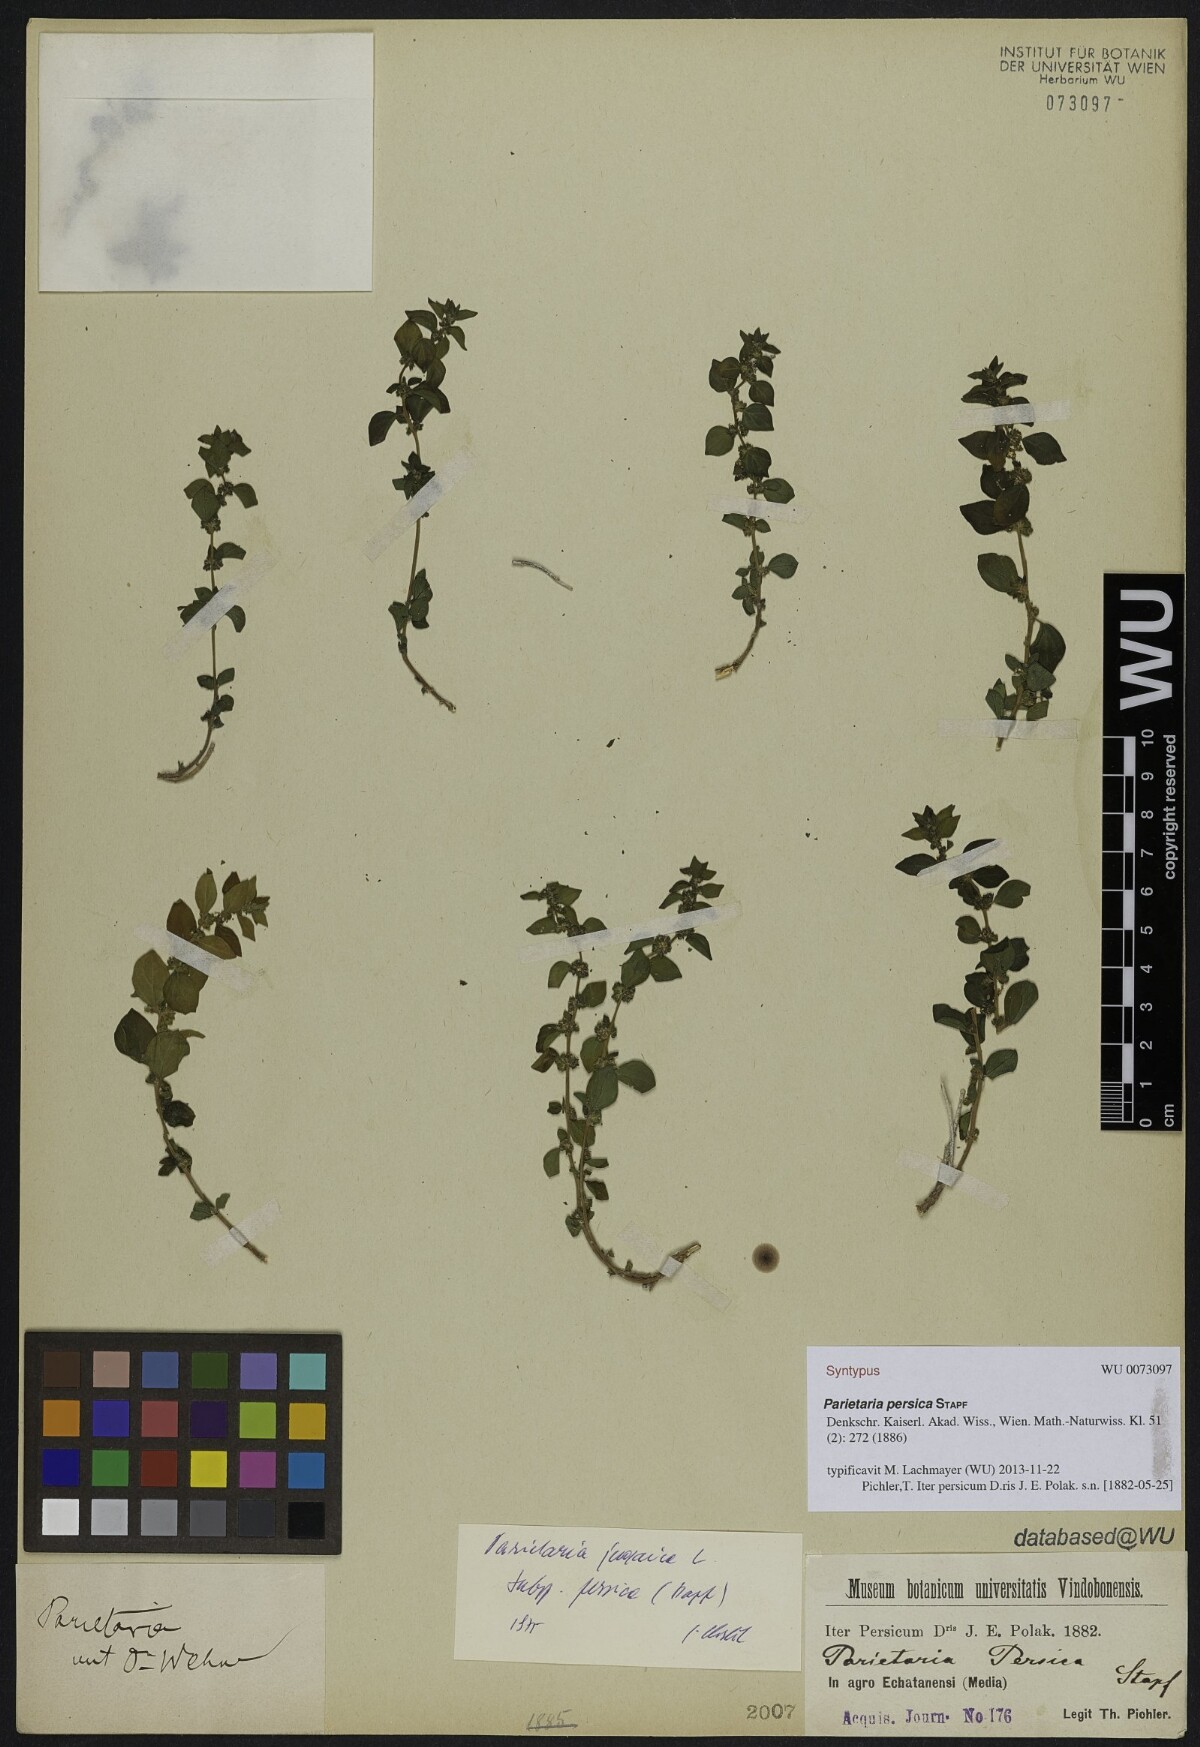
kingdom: Plantae
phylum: Tracheophyta
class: Magnoliopsida
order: Rosales
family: Urticaceae
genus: Parietaria
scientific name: Parietaria judaica
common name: Pellitory-of-the-wall
